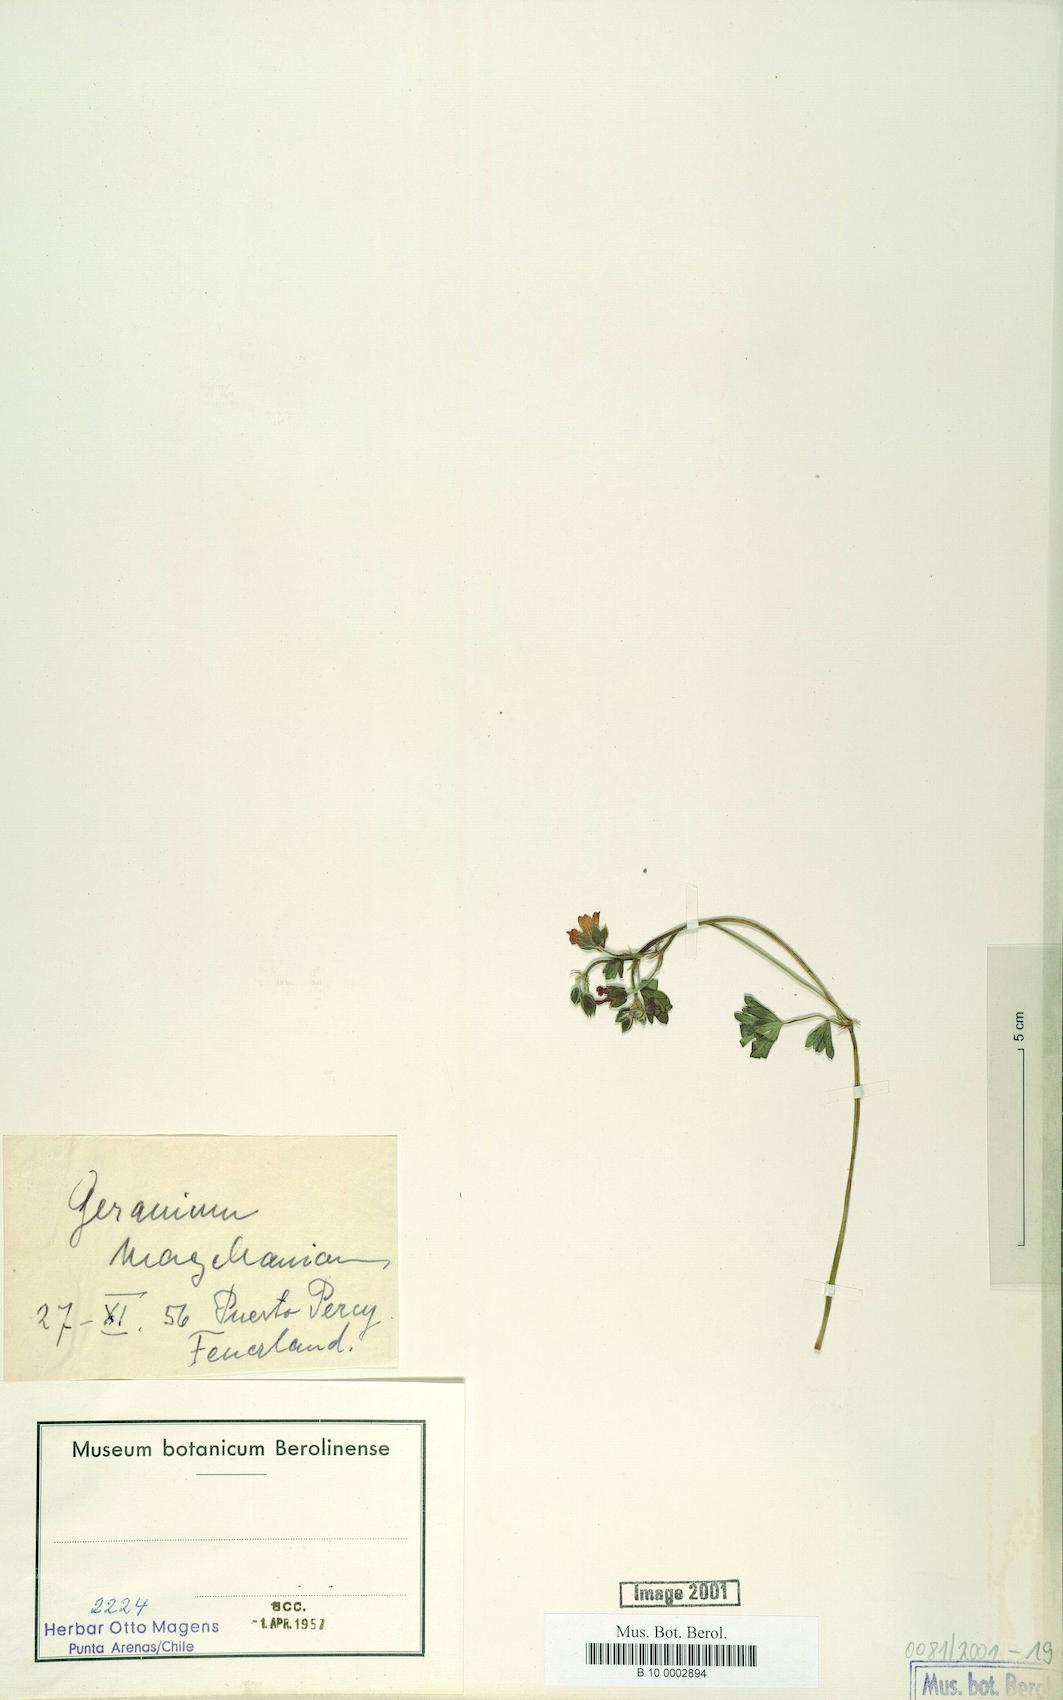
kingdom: Plantae
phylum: Tracheophyta
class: Magnoliopsida
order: Geraniales
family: Geraniaceae
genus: Geranium
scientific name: Geranium magellanicum
